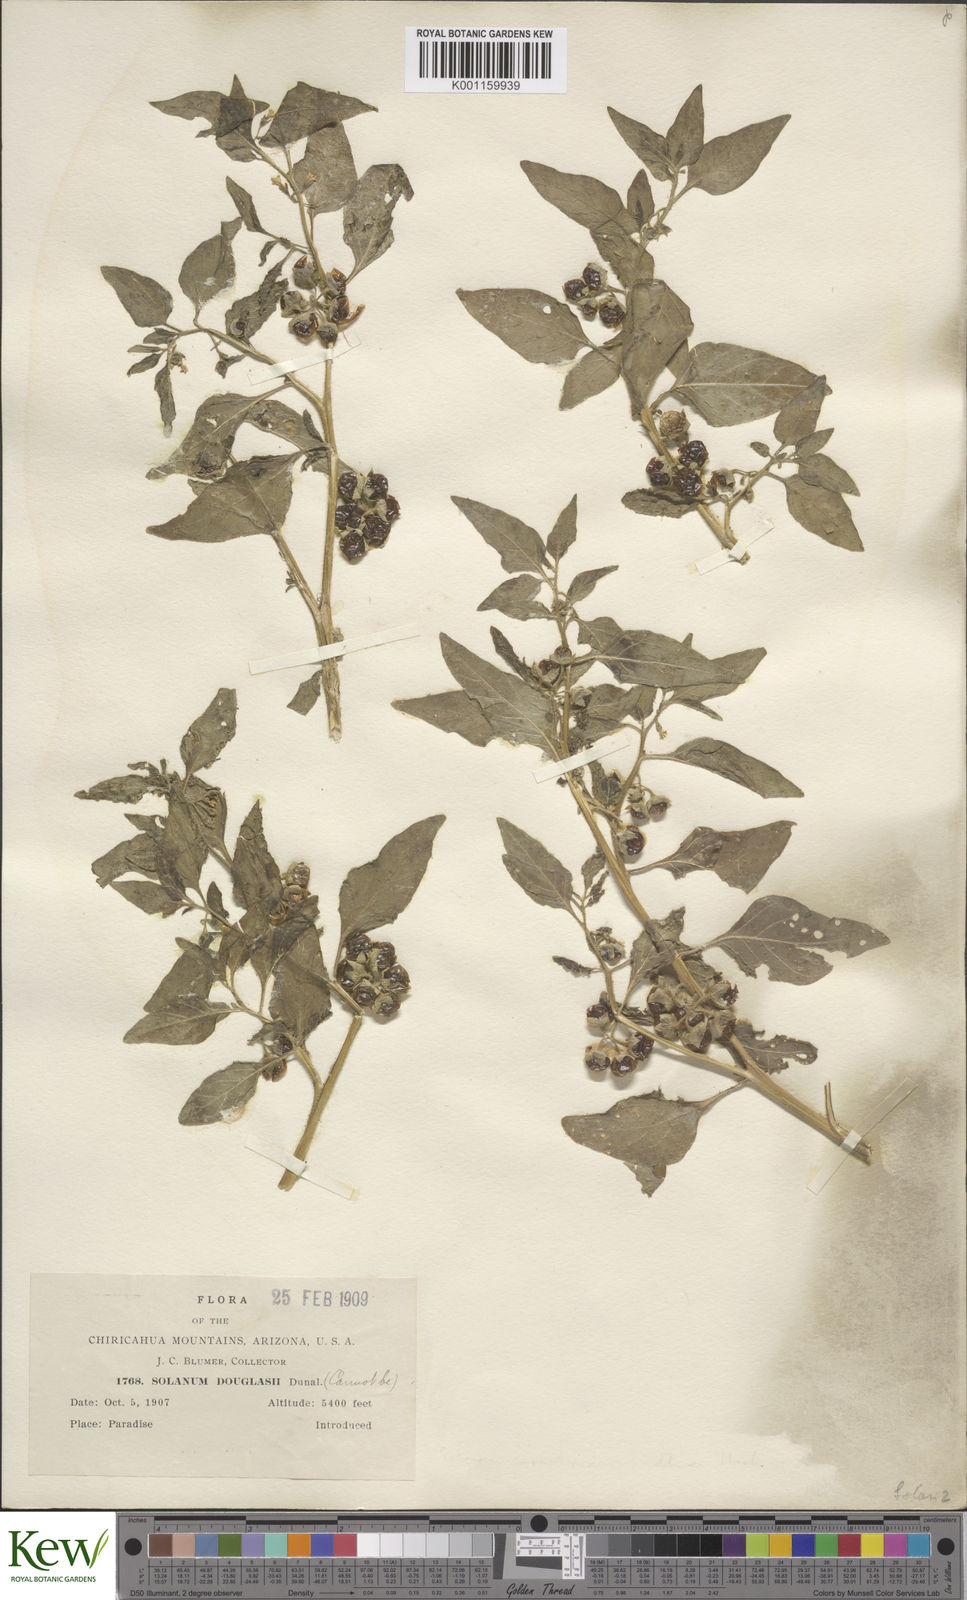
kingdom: Plantae
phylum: Tracheophyta
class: Magnoliopsida
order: Solanales
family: Solanaceae
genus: Solanum
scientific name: Solanum nitidibaccatum
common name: Hairy nightshade
